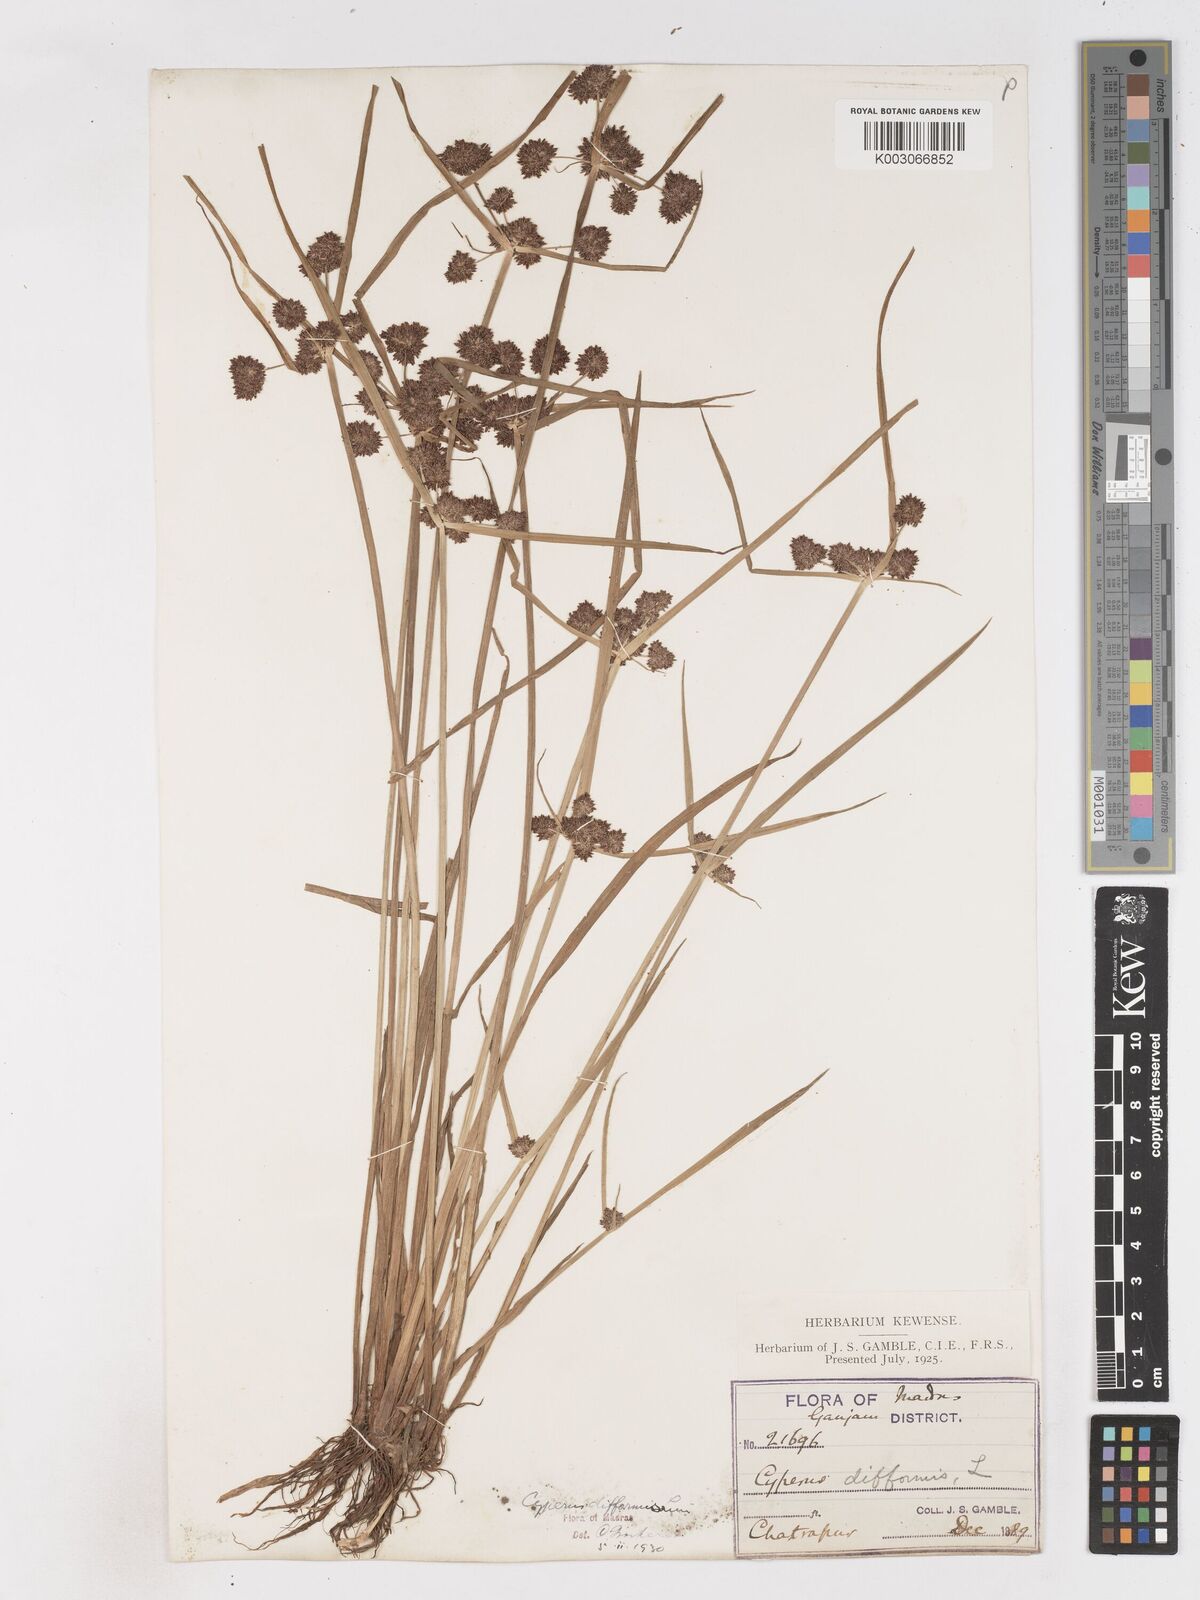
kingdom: Plantae
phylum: Tracheophyta
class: Liliopsida
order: Poales
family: Cyperaceae
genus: Cyperus
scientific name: Cyperus difformis
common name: Variable flatsedge
